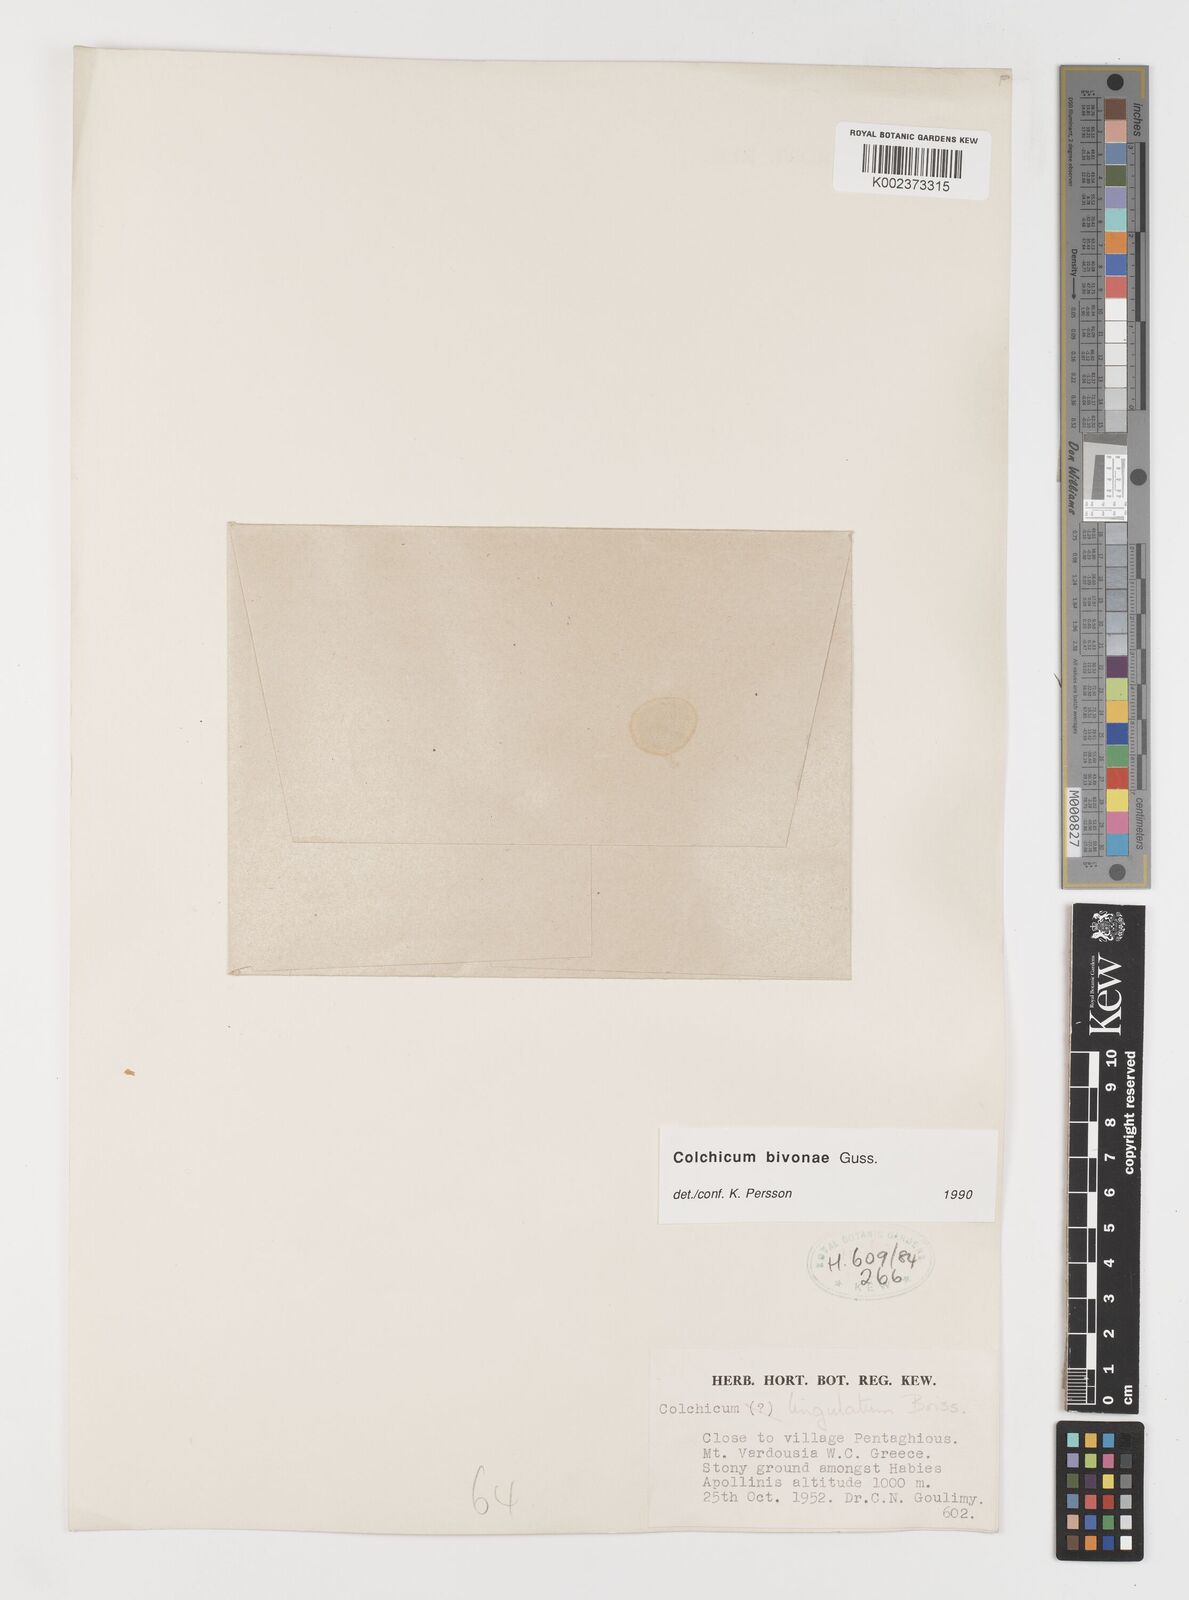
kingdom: Plantae
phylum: Tracheophyta
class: Liliopsida
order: Liliales
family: Colchicaceae
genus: Colchicum
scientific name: Colchicum bivonae
